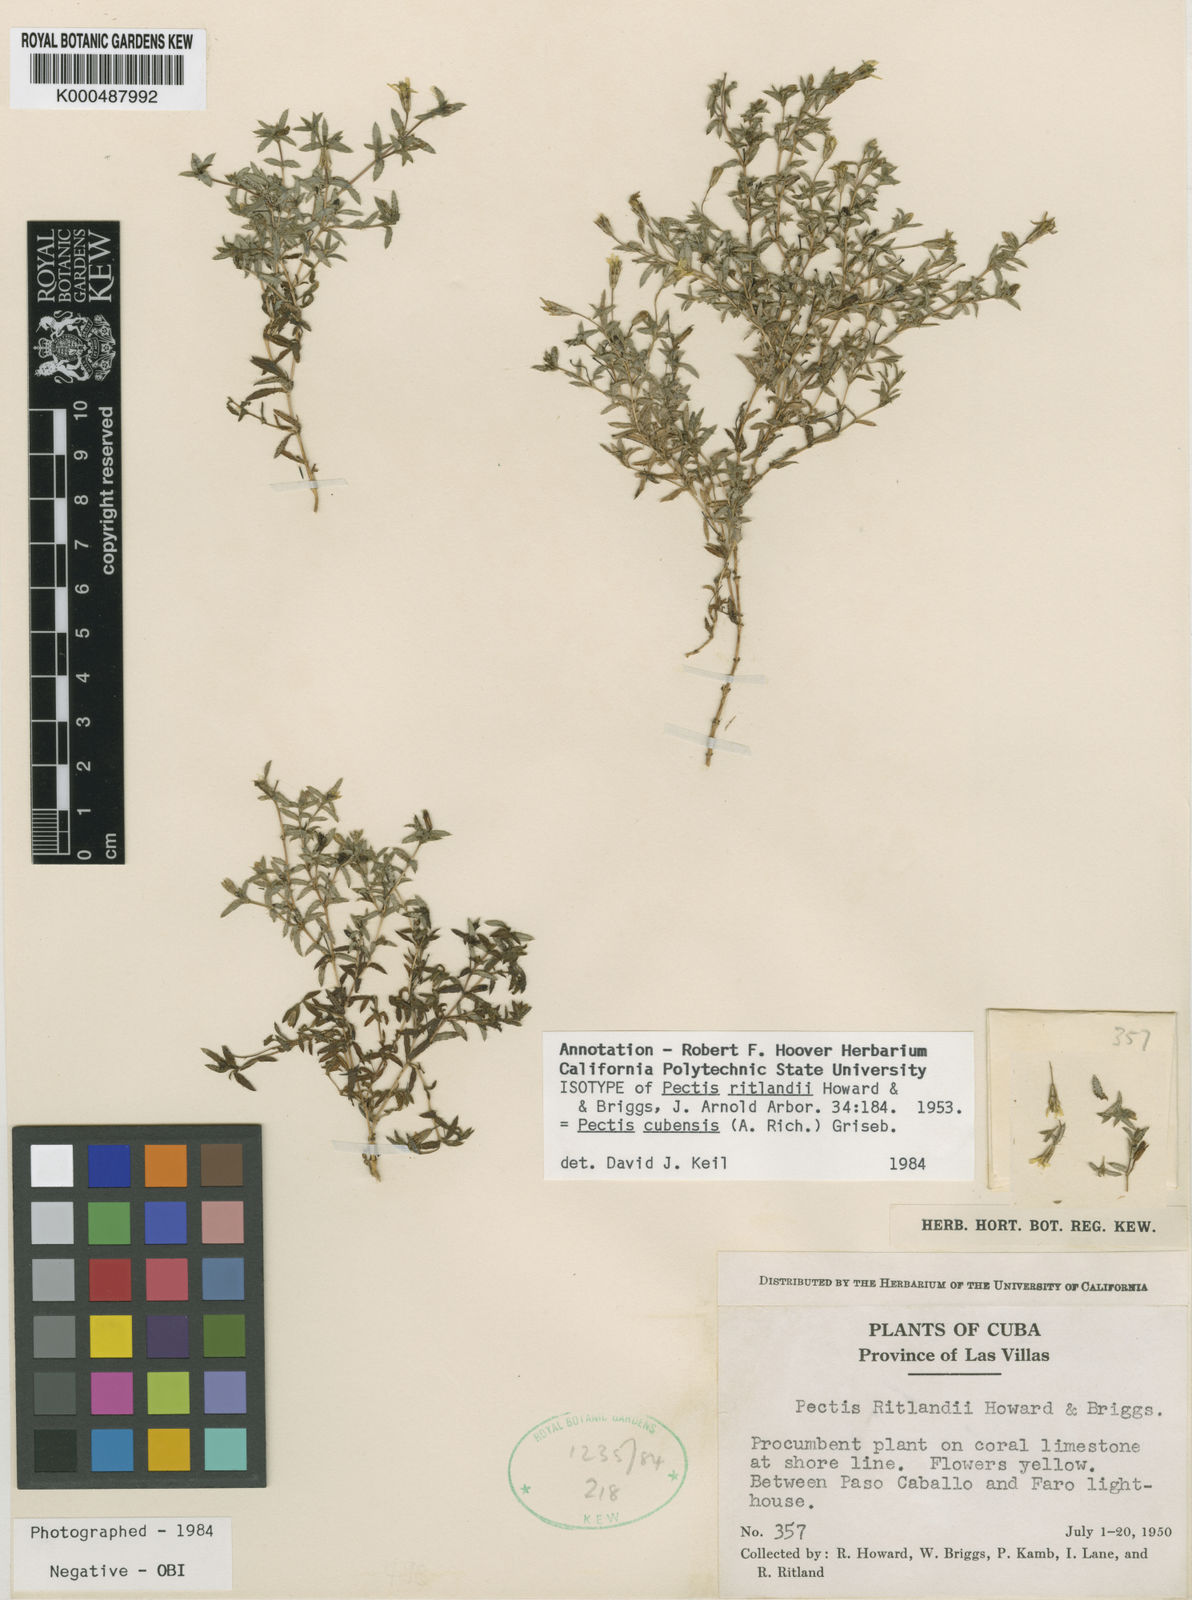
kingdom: Plantae
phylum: Tracheophyta
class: Magnoliopsida
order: Asterales
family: Asteraceae
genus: Pectis
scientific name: Pectis cubensis
